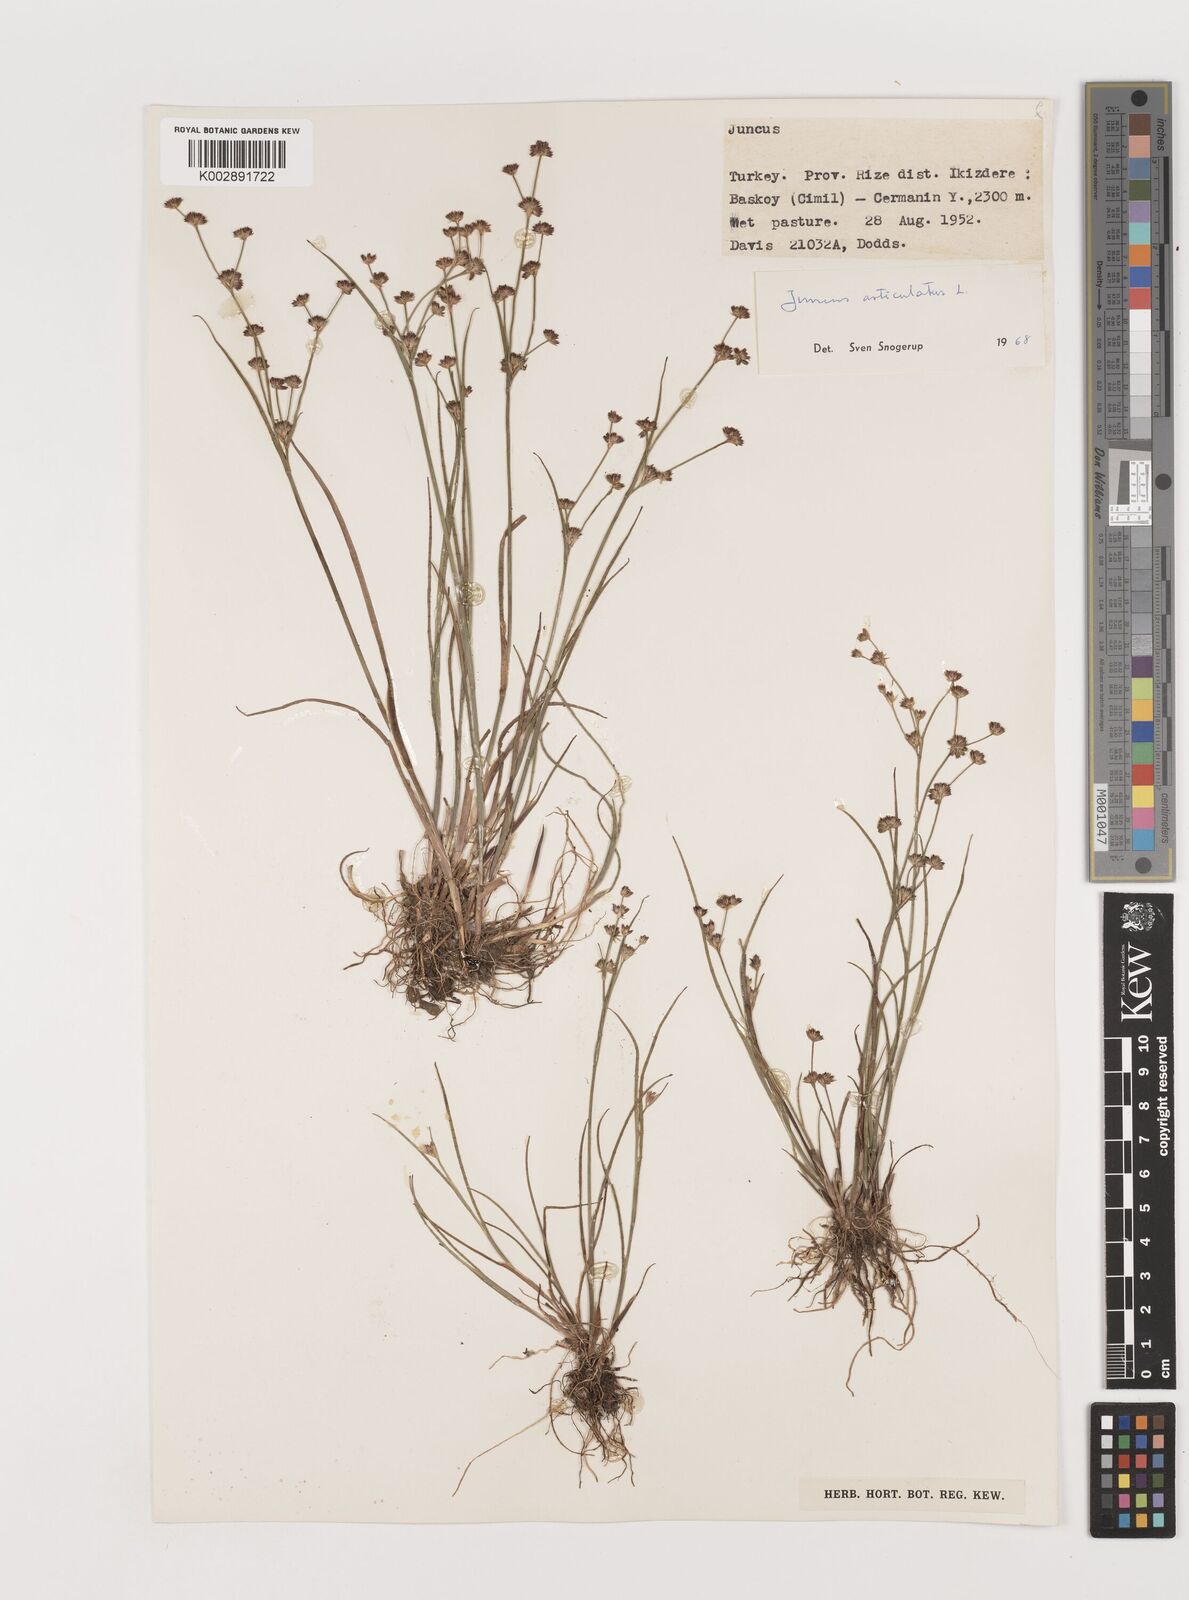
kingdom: Plantae
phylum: Tracheophyta
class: Liliopsida
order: Poales
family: Juncaceae
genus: Juncus
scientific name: Juncus articulatus
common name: Jointed rush
